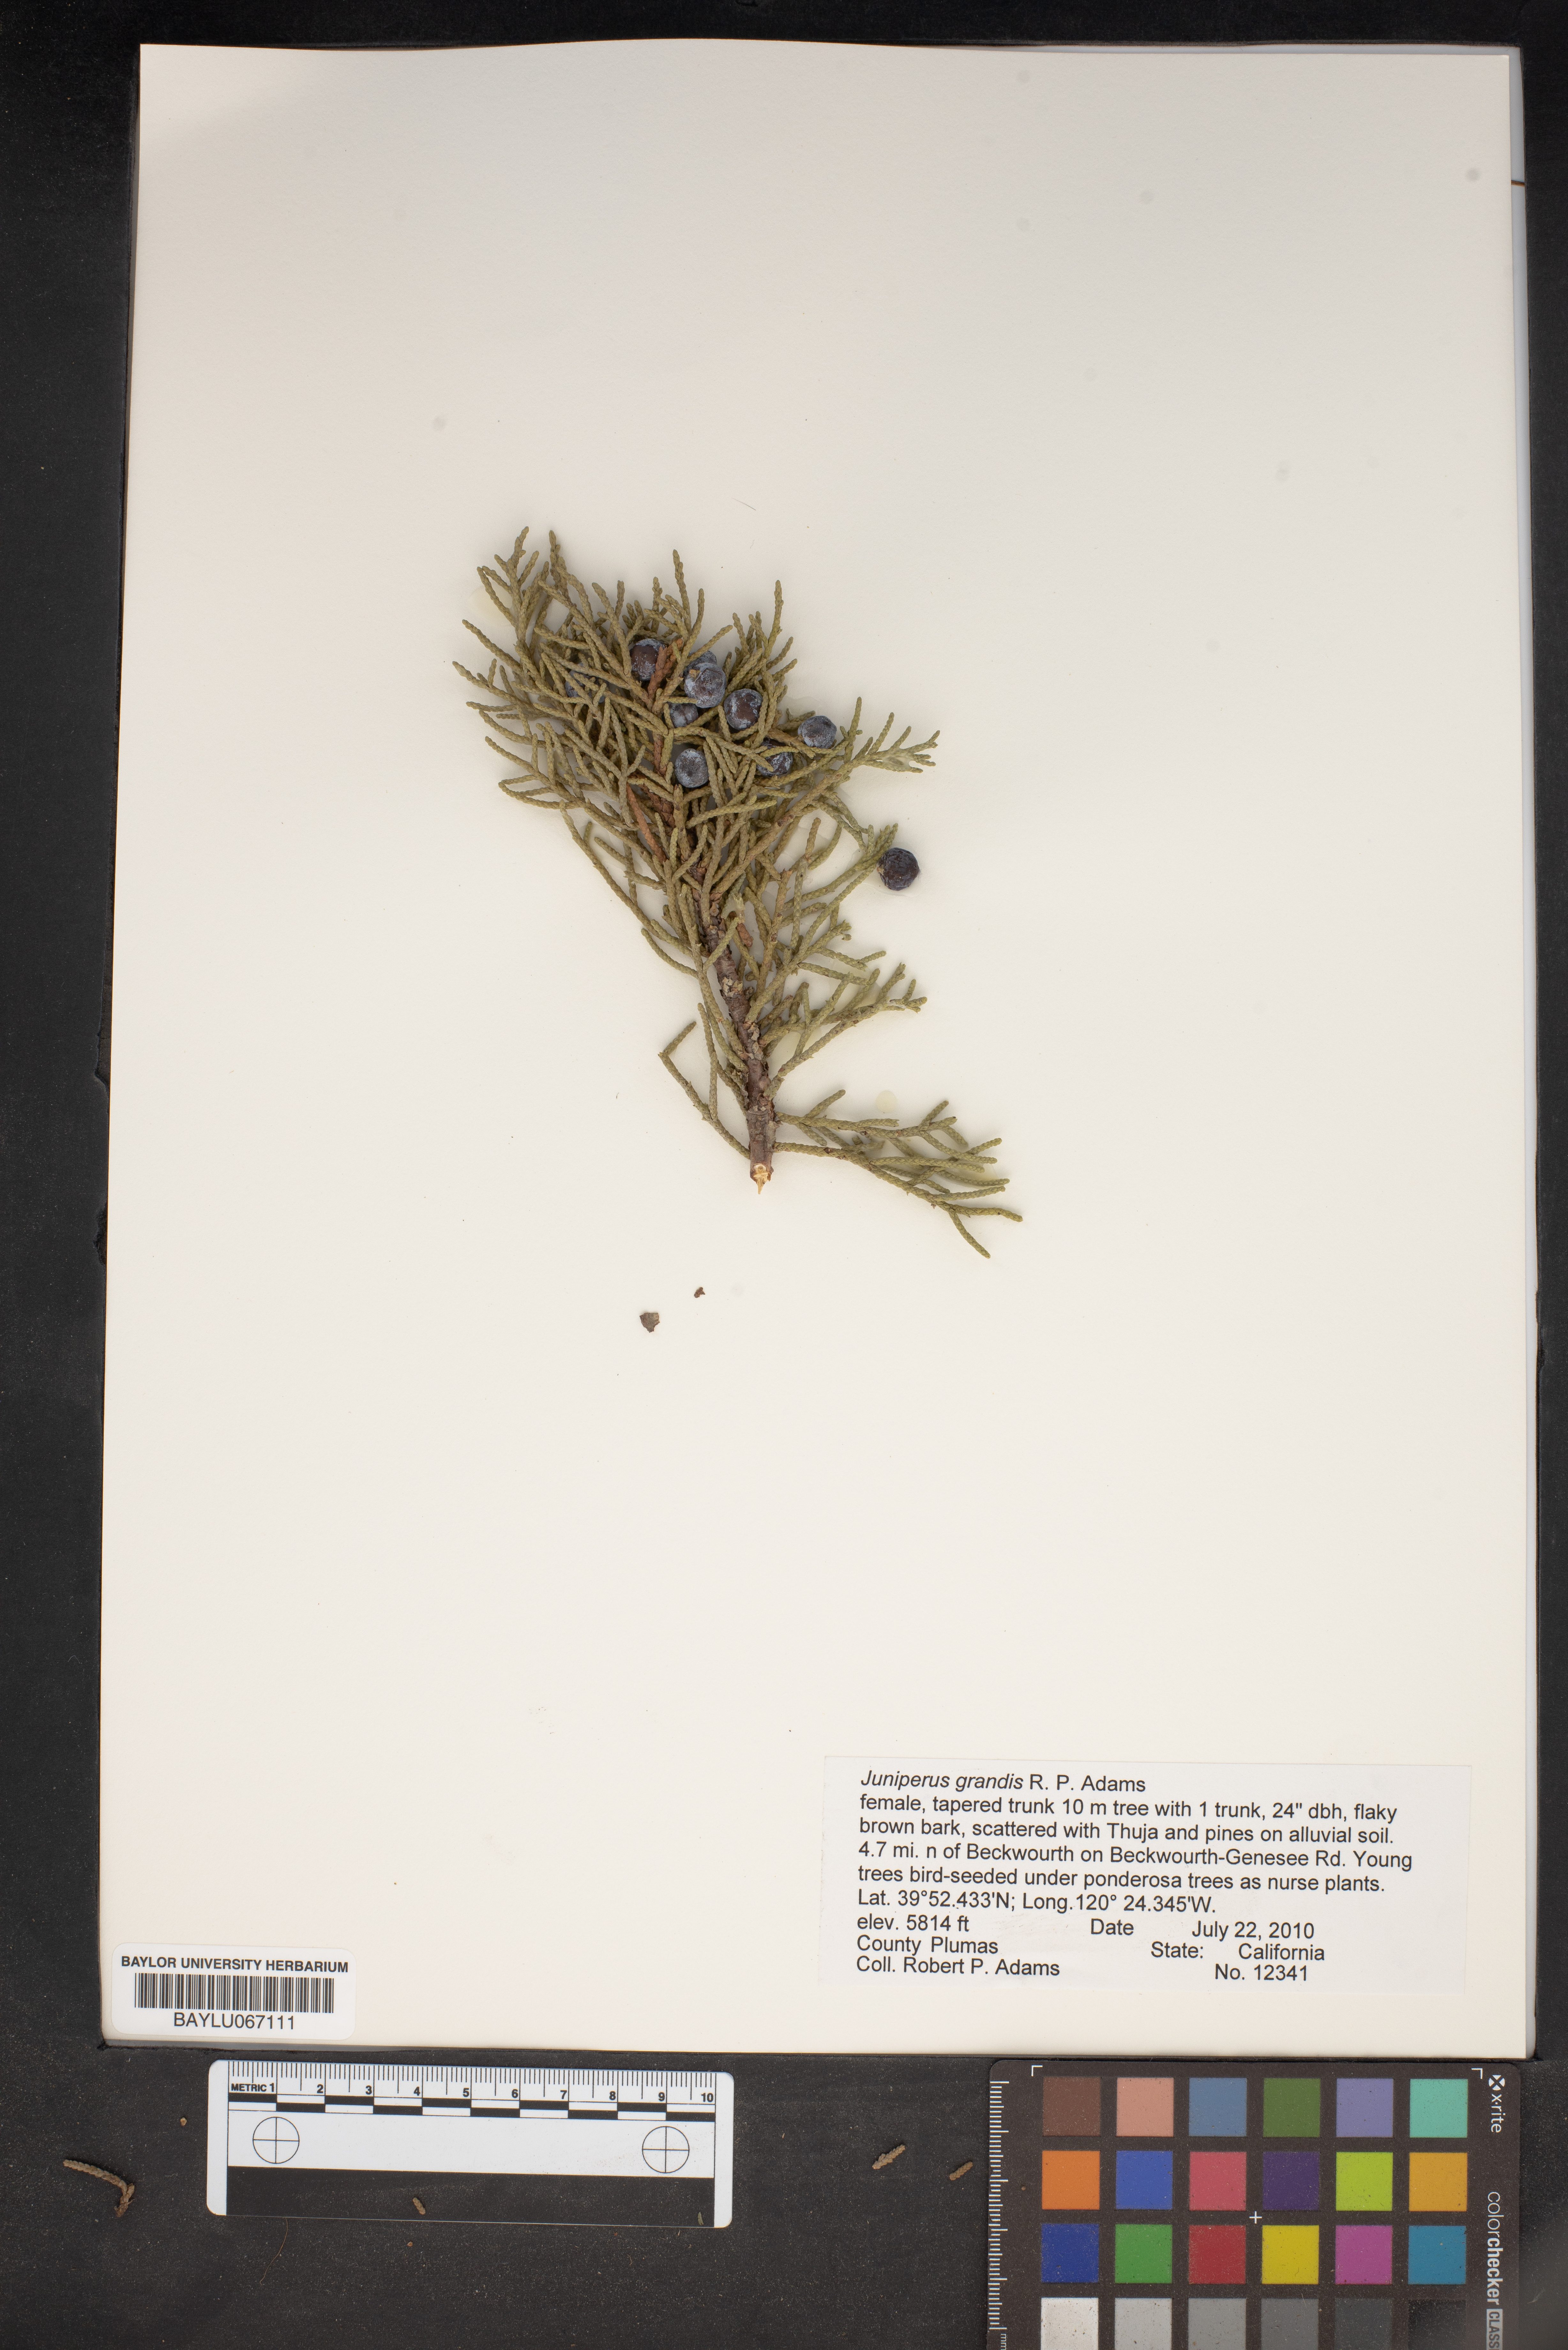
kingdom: Plantae
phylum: Tracheophyta
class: Pinopsida
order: Pinales
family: Cupressaceae
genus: Juniperus
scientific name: Juniperus occidentalis
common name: Western juniper
